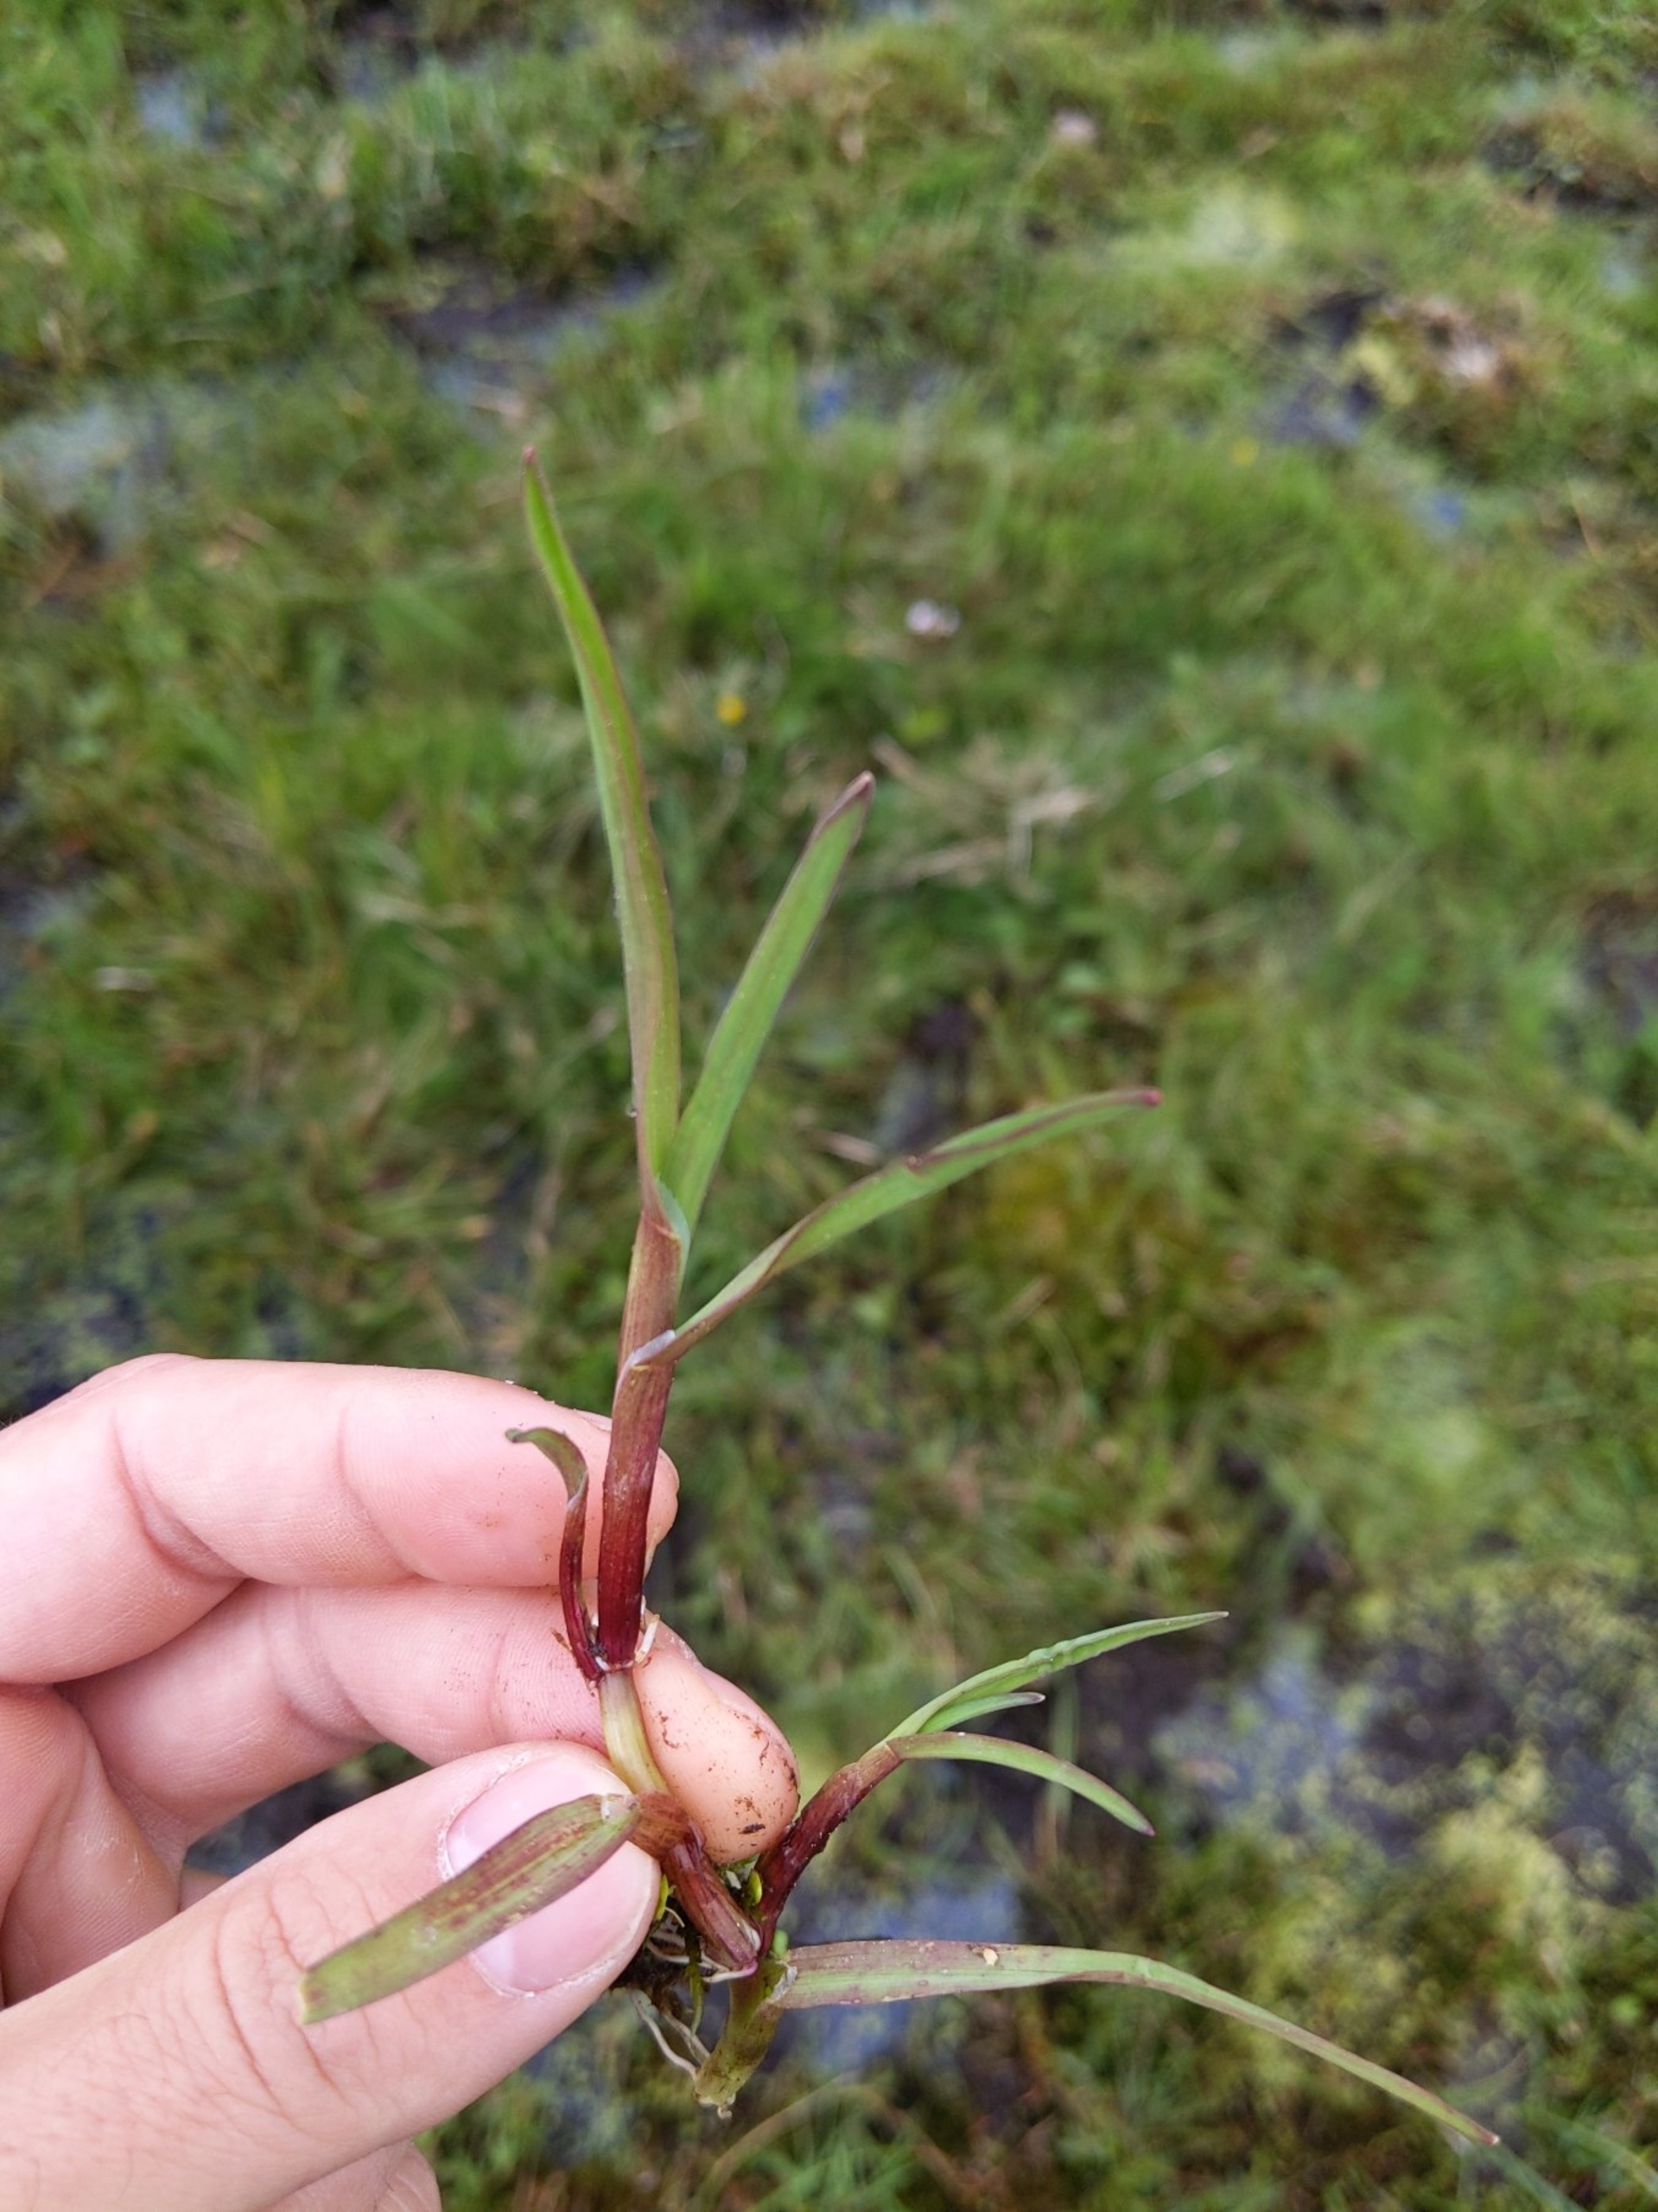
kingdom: Plantae
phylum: Tracheophyta
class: Liliopsida
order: Poales
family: Poaceae
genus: Catabrosa
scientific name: Catabrosa aquatica
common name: Tæppegræs
